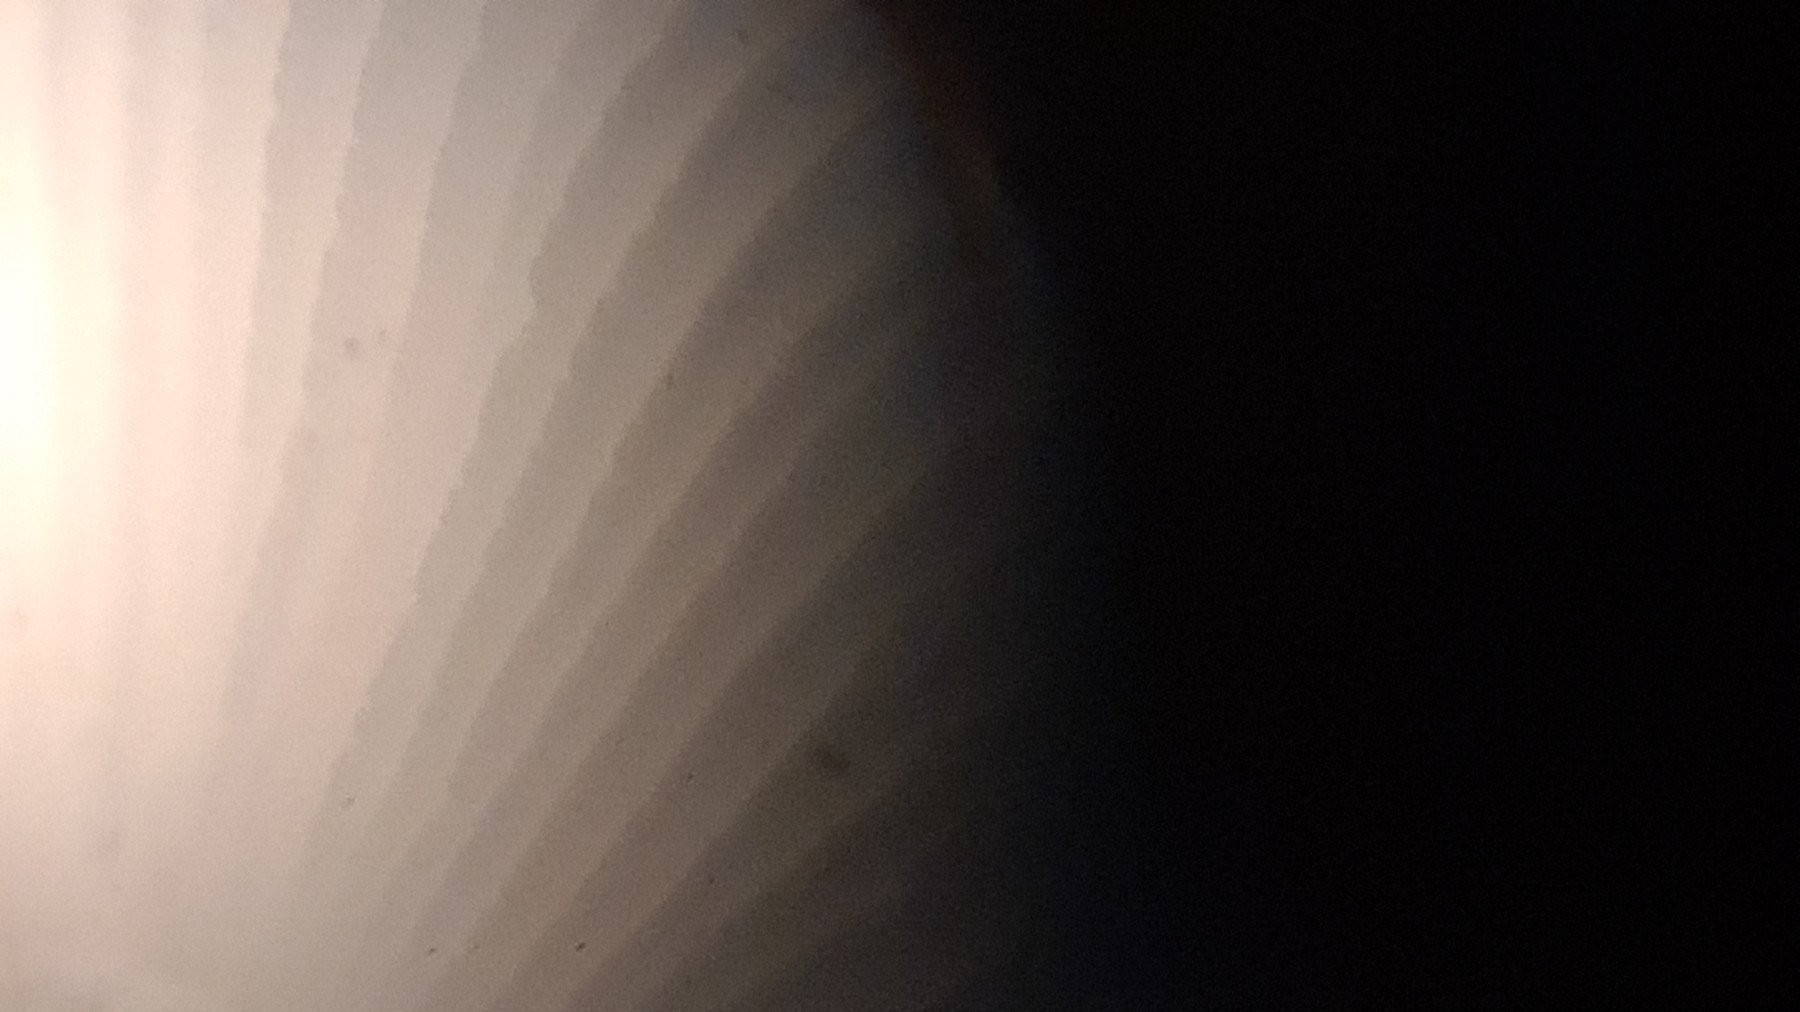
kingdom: Fungi
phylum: Basidiomycota
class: Agaricomycetes
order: Russulales
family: Russulaceae
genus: Russula
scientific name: Russula fragilis
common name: savbladet skørhat
